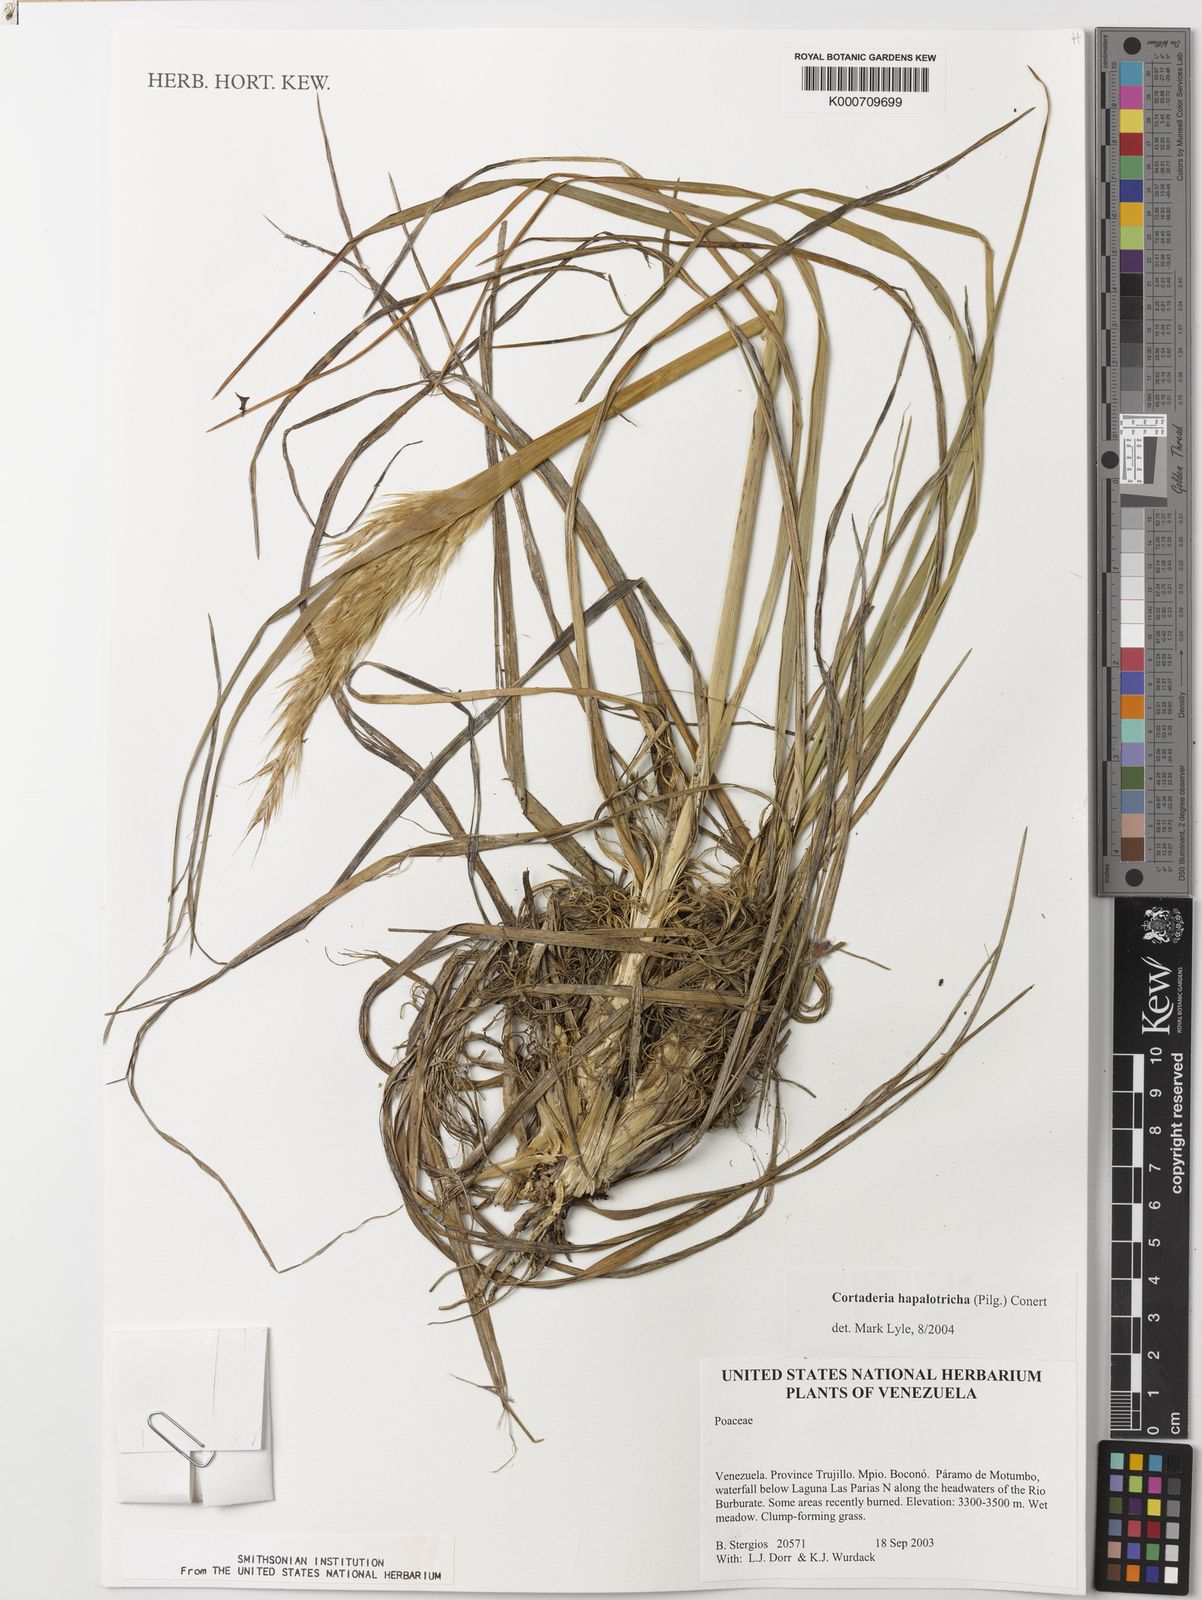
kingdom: Plantae
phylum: Tracheophyta
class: Liliopsida
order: Poales
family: Poaceae
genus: Cortaderia
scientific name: Cortaderia hapalotricha
